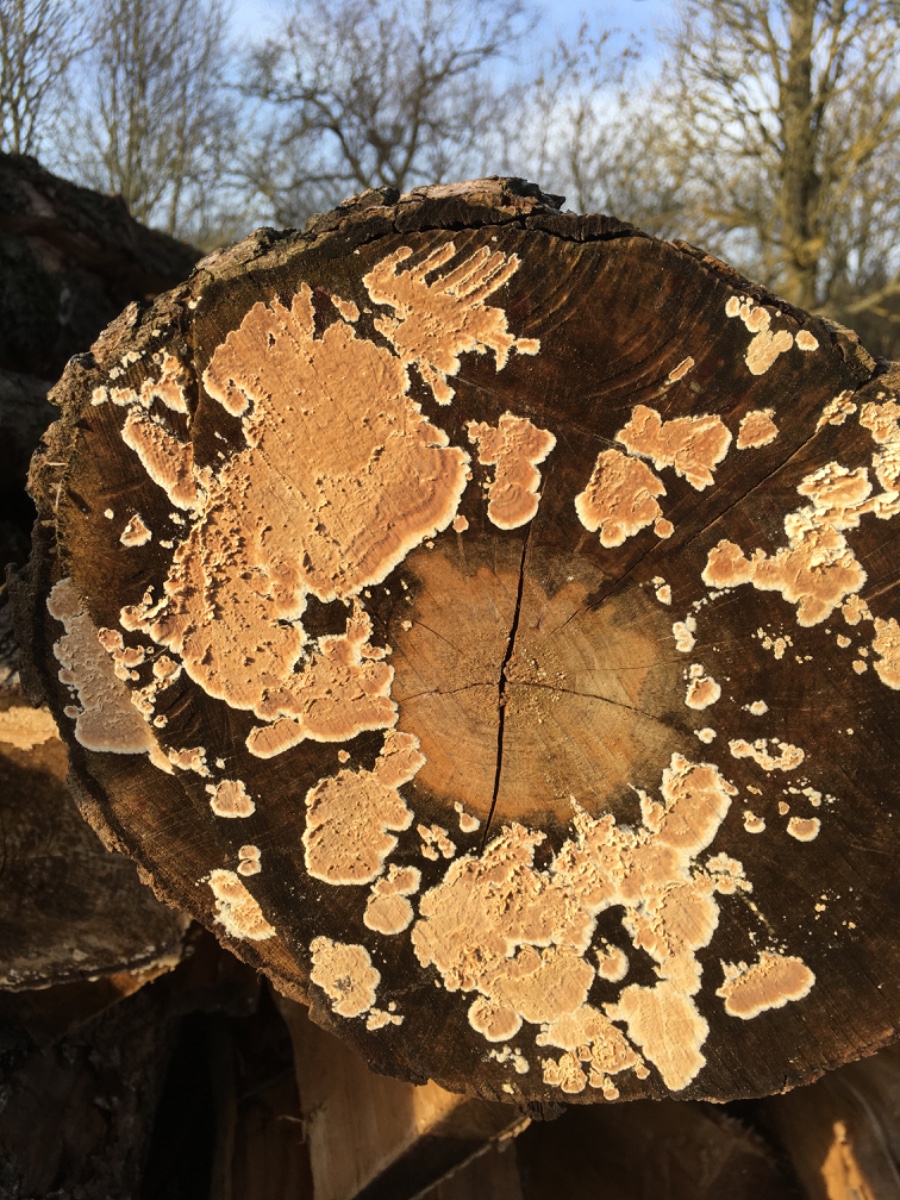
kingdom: Fungi
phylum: Basidiomycota
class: Agaricomycetes
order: Agaricales
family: Physalacriaceae
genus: Cylindrobasidium
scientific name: Cylindrobasidium evolvens
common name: sprækkehinde
